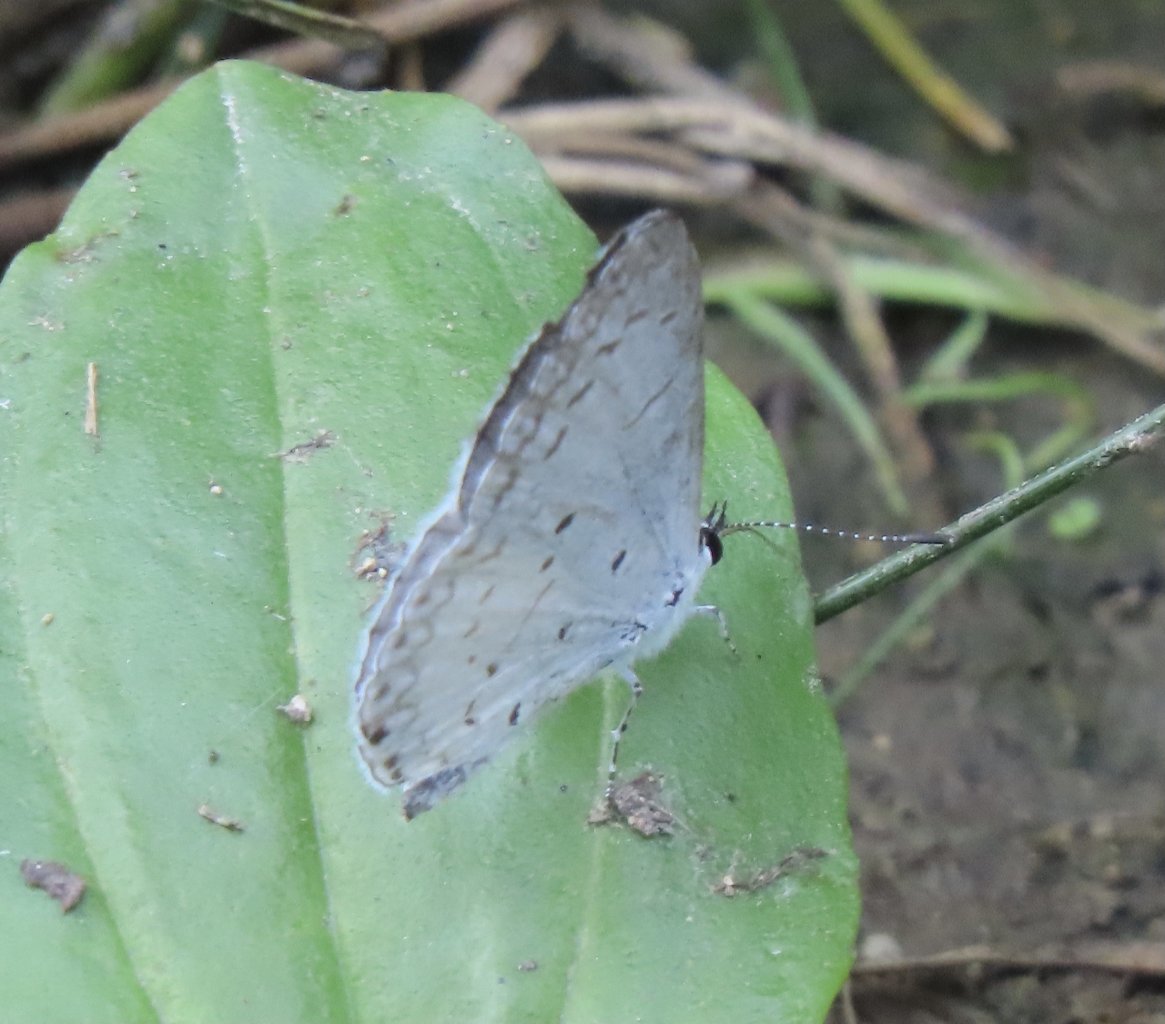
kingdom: Animalia
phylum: Arthropoda
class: Insecta
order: Lepidoptera
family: Lycaenidae
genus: Cyaniris
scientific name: Cyaniris neglecta
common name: Summer Azure
